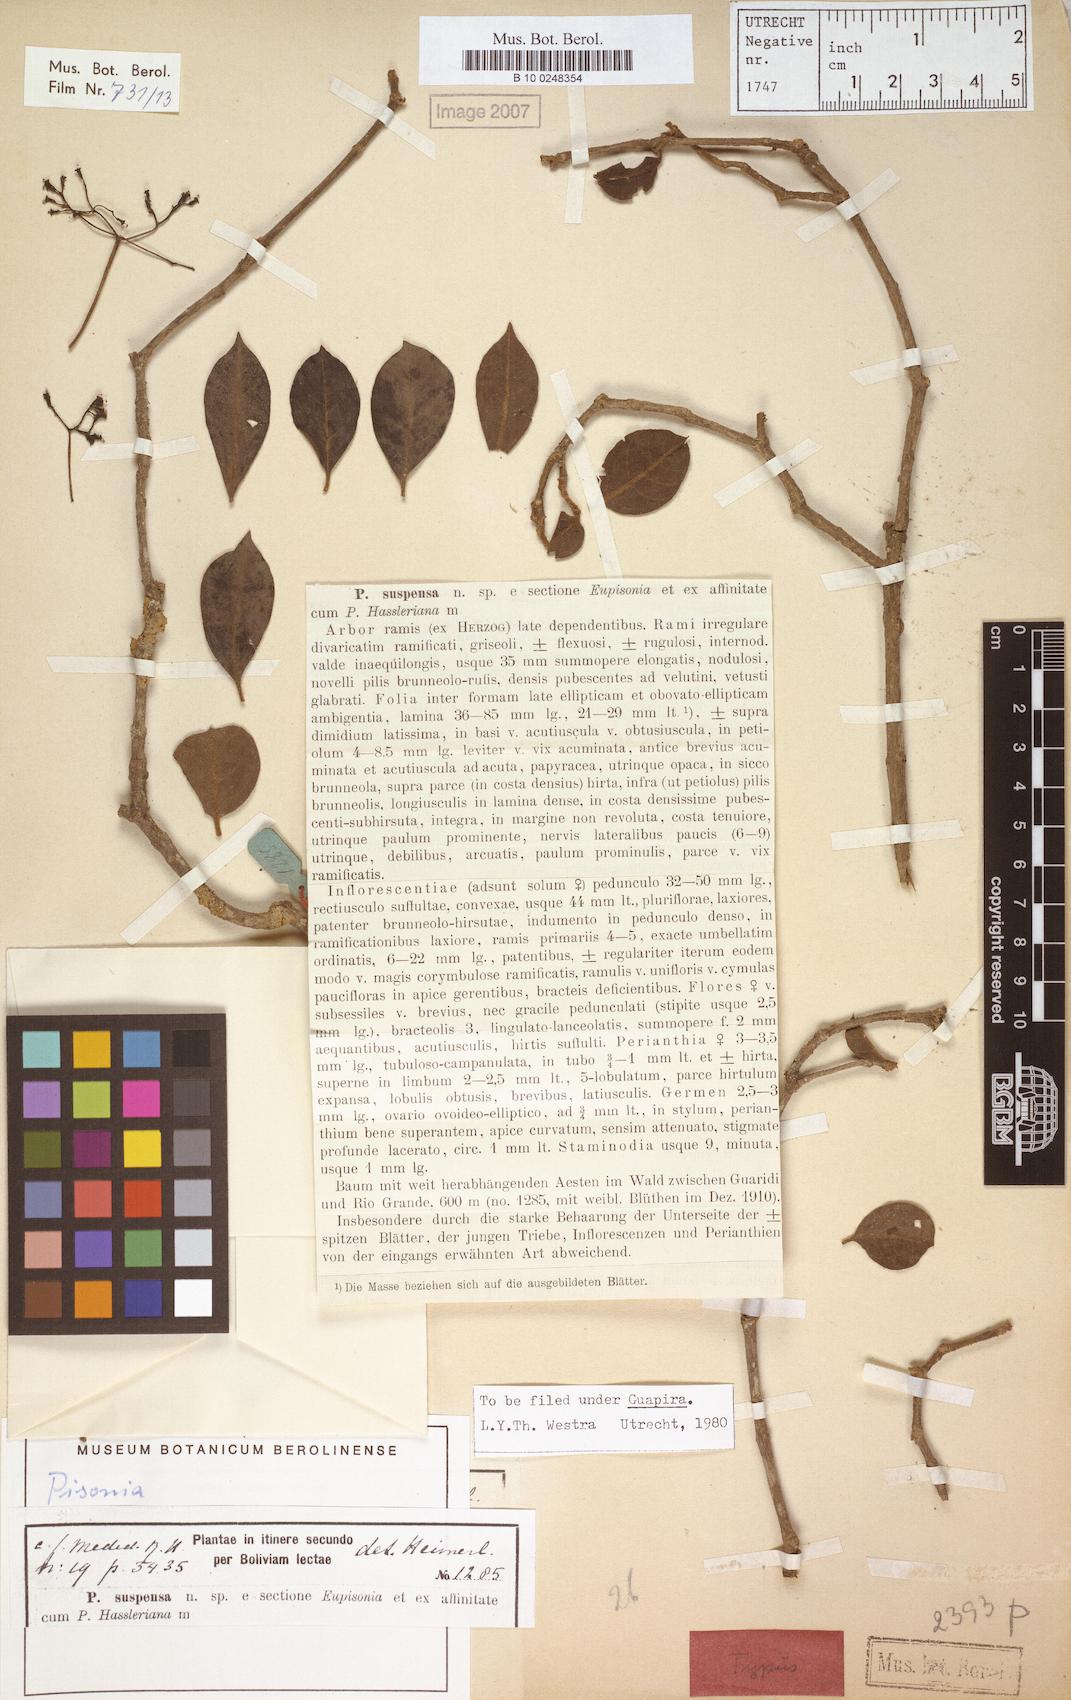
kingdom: Plantae
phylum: Tracheophyta
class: Magnoliopsida
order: Caryophyllales
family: Nyctaginaceae
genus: Guapira
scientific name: Guapira suspensa
